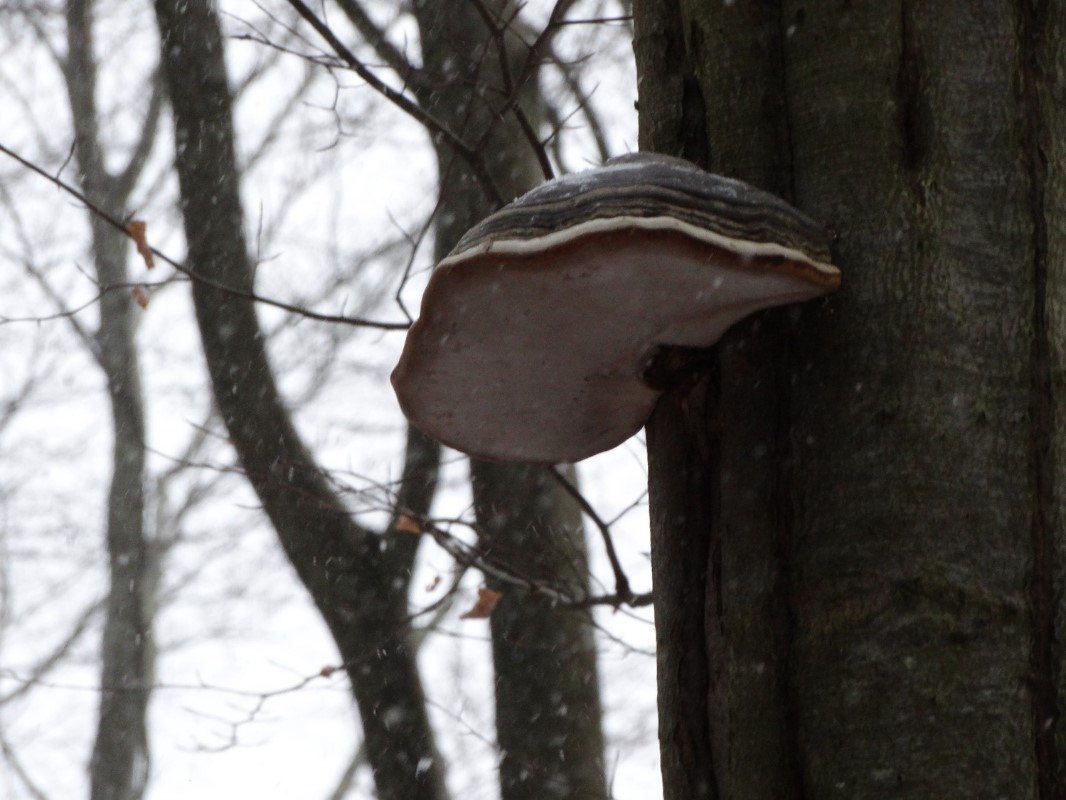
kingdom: Fungi
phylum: Basidiomycota
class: Agaricomycetes
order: Polyporales
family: Polyporaceae
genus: Fomes
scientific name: Fomes fomentarius
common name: tøndersvamp
